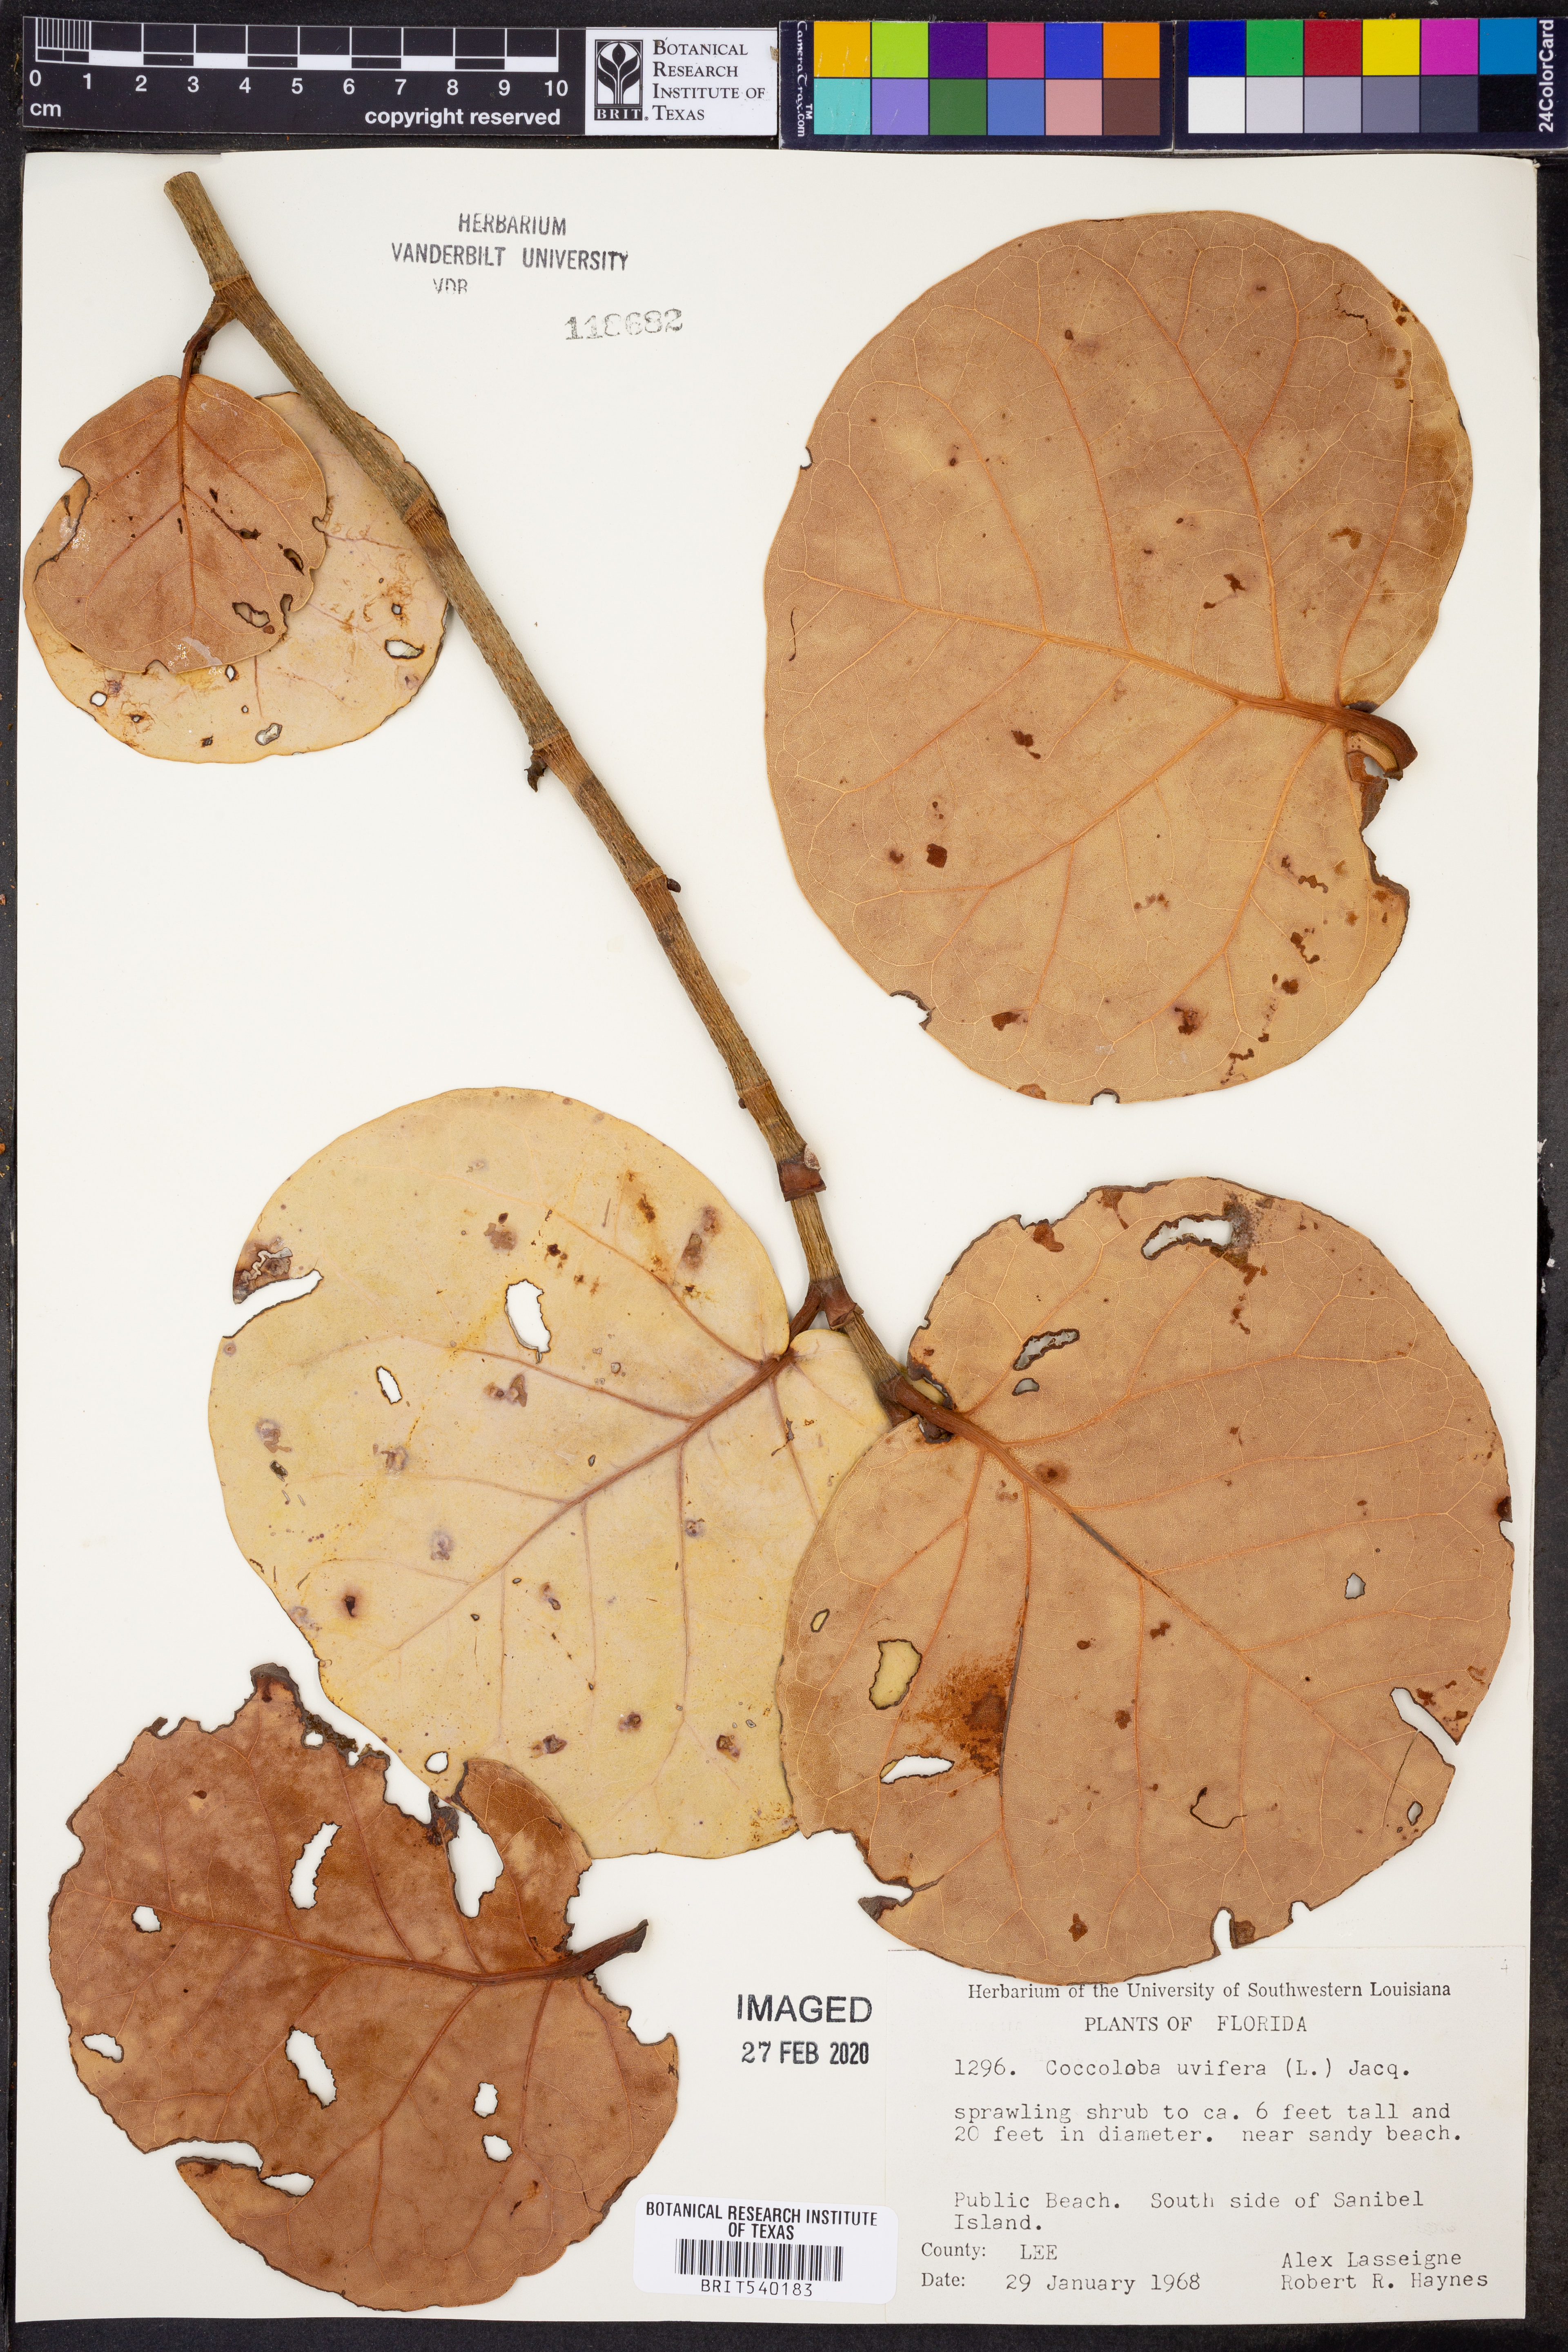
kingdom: Plantae
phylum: Tracheophyta
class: Magnoliopsida
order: Caryophyllales
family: Polygonaceae
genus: Coccoloba
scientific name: Coccoloba uvifera
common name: Seagrape
